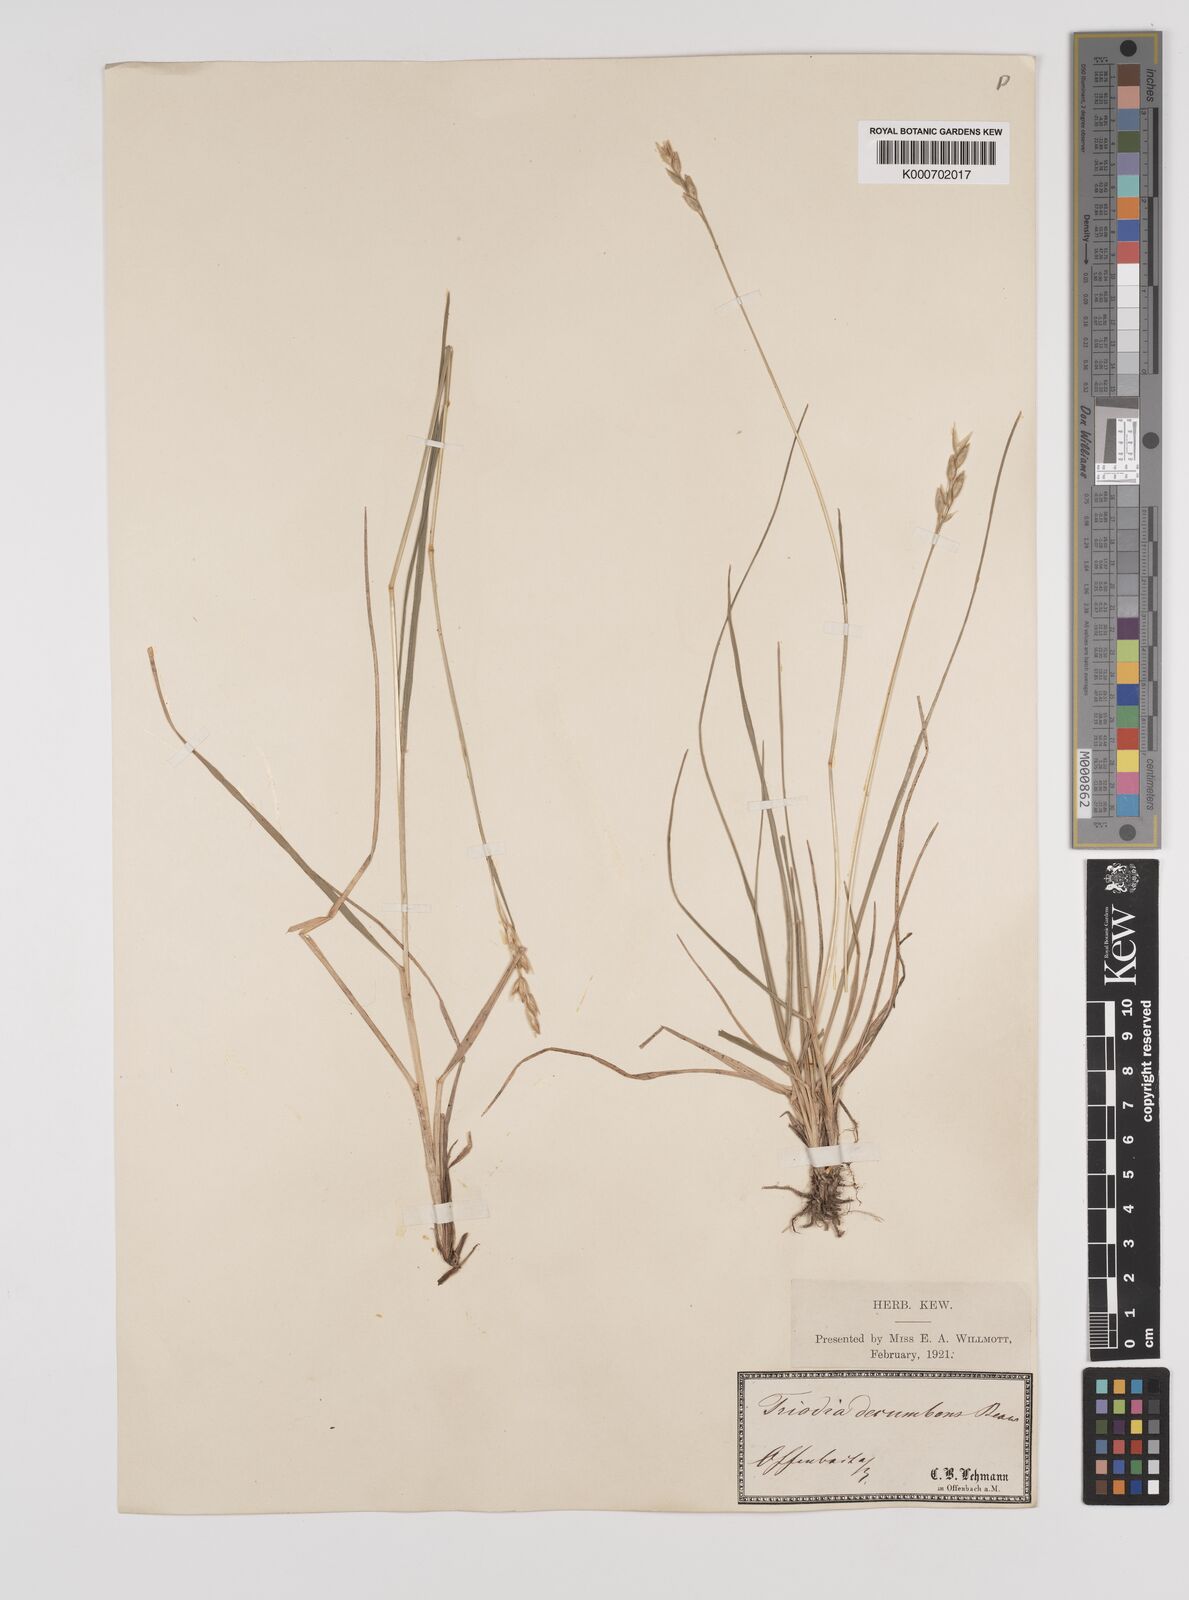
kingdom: Plantae
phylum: Tracheophyta
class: Liliopsida
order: Poales
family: Poaceae
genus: Danthonia
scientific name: Danthonia decumbens
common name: Common heathgrass
